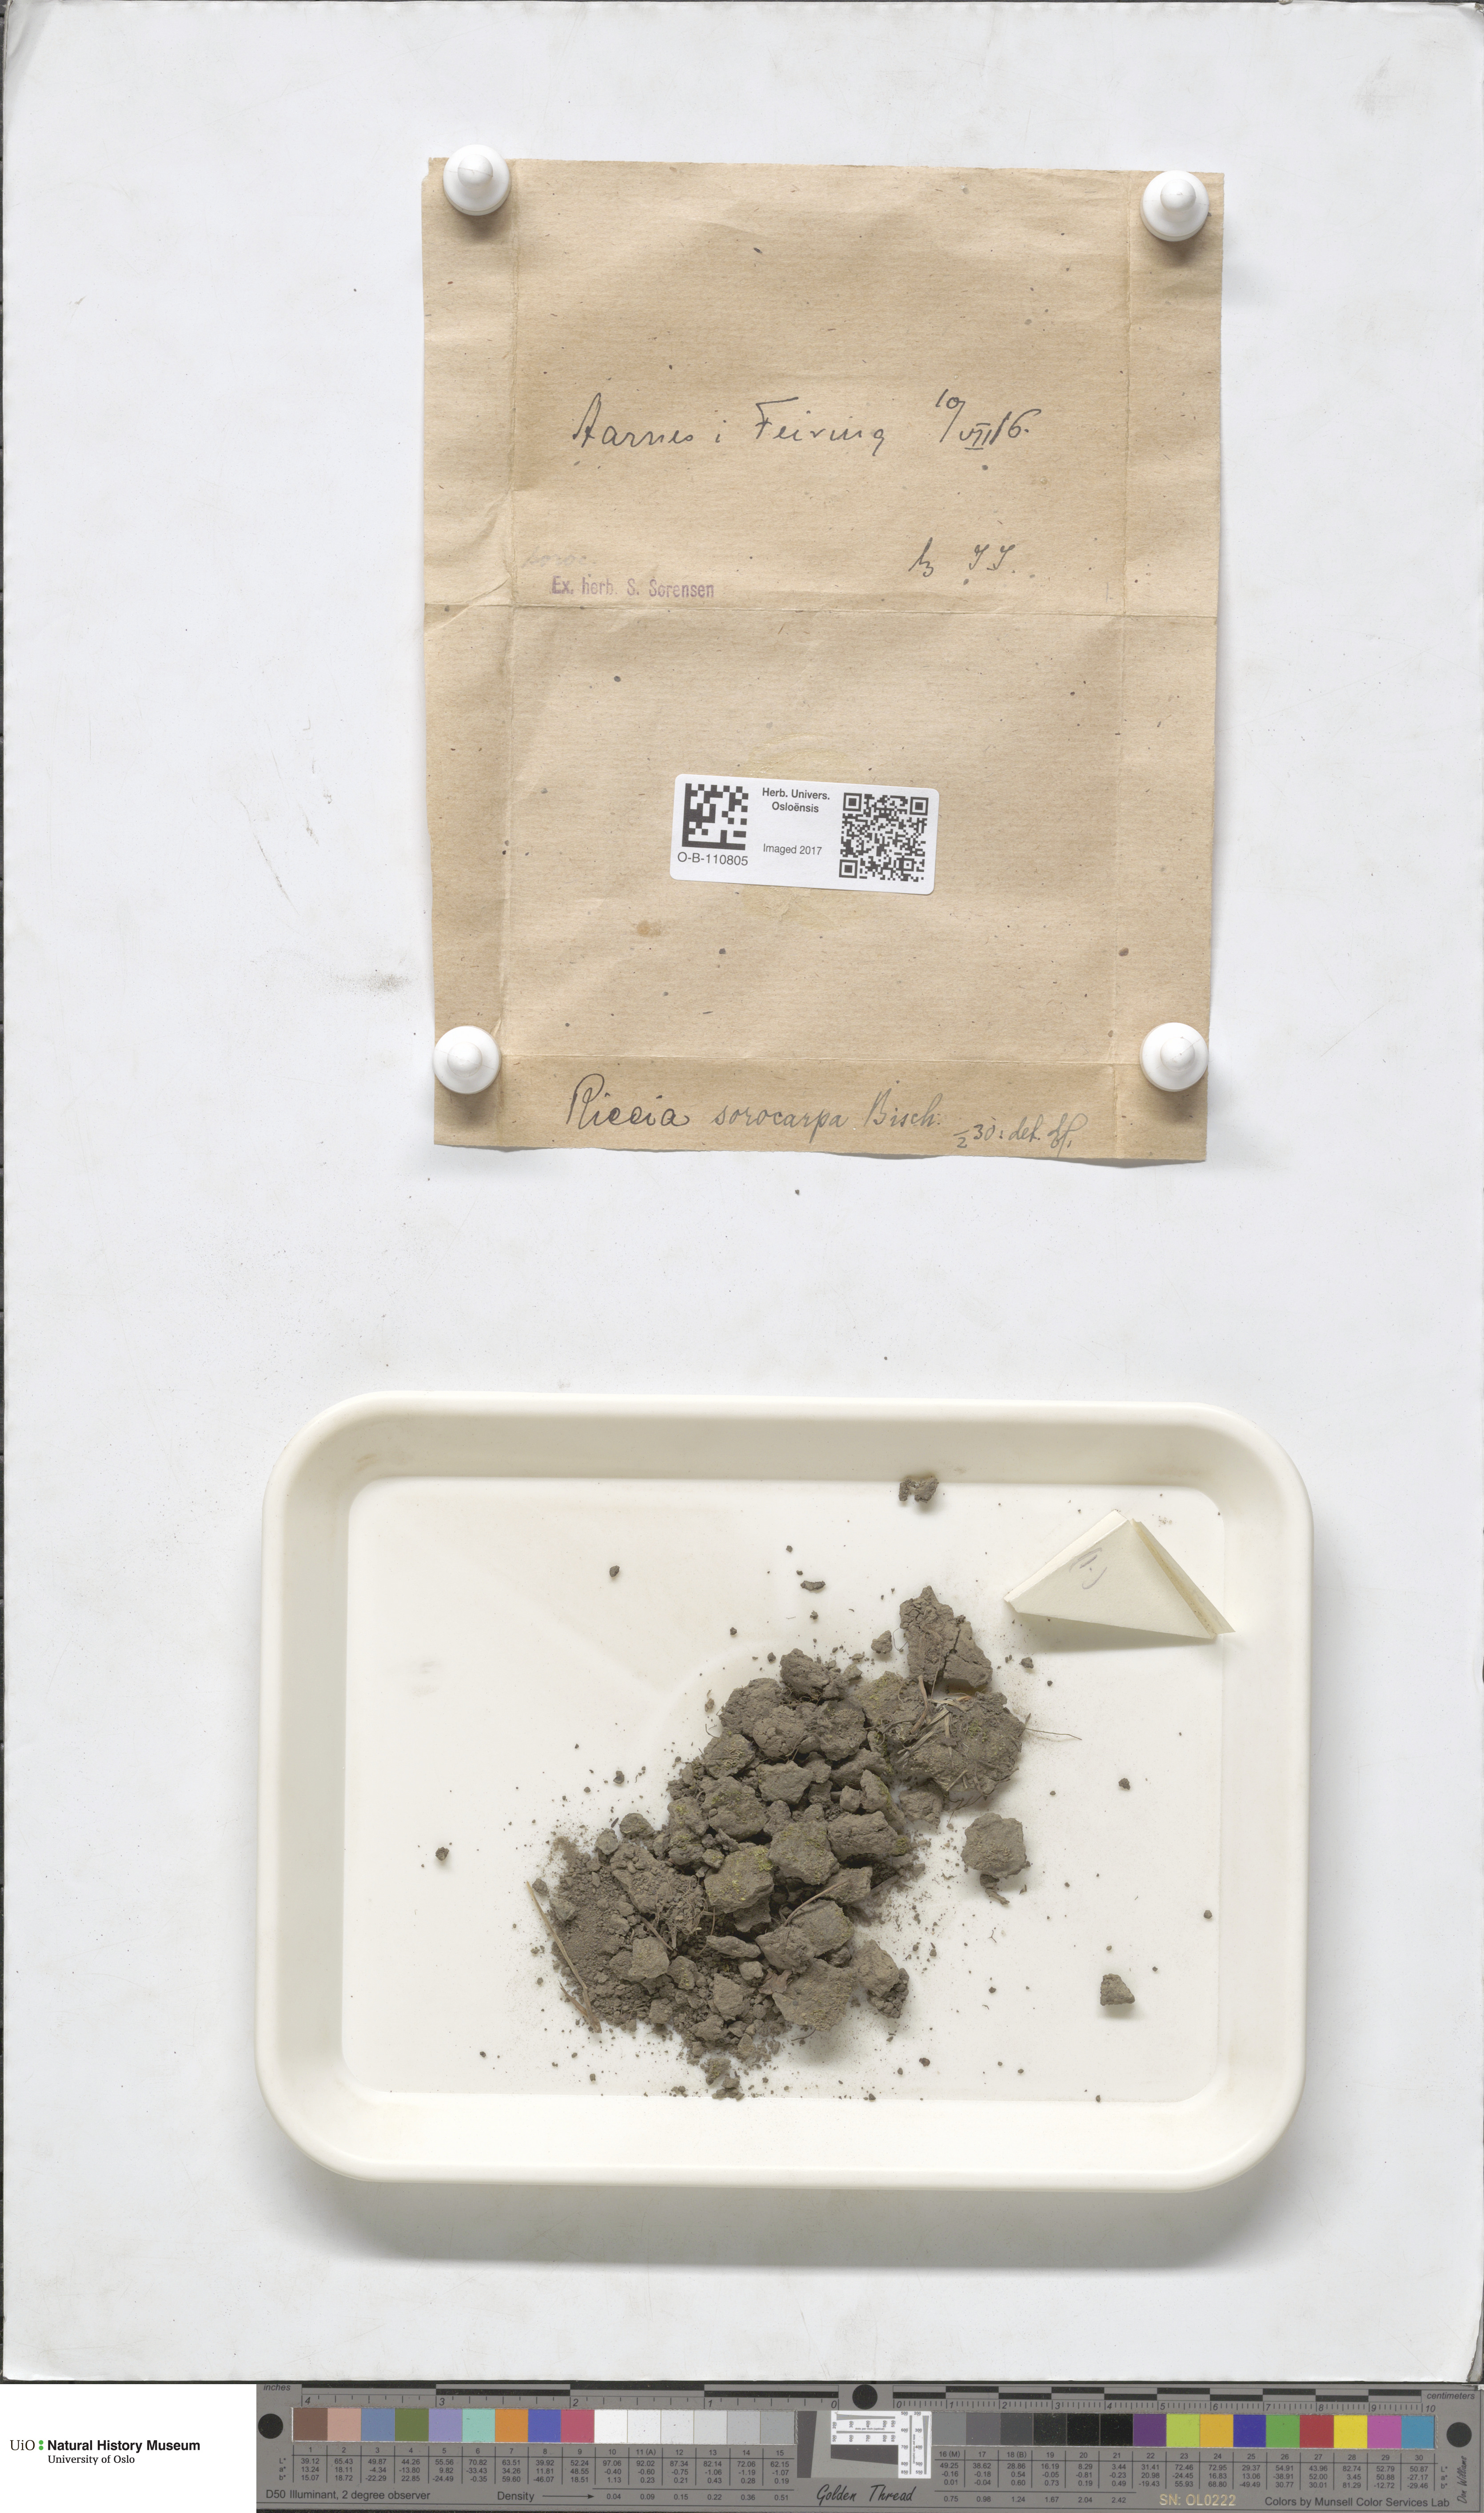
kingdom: Plantae
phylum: Marchantiophyta
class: Marchantiopsida
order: Marchantiales
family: Ricciaceae
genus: Riccia
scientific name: Riccia
